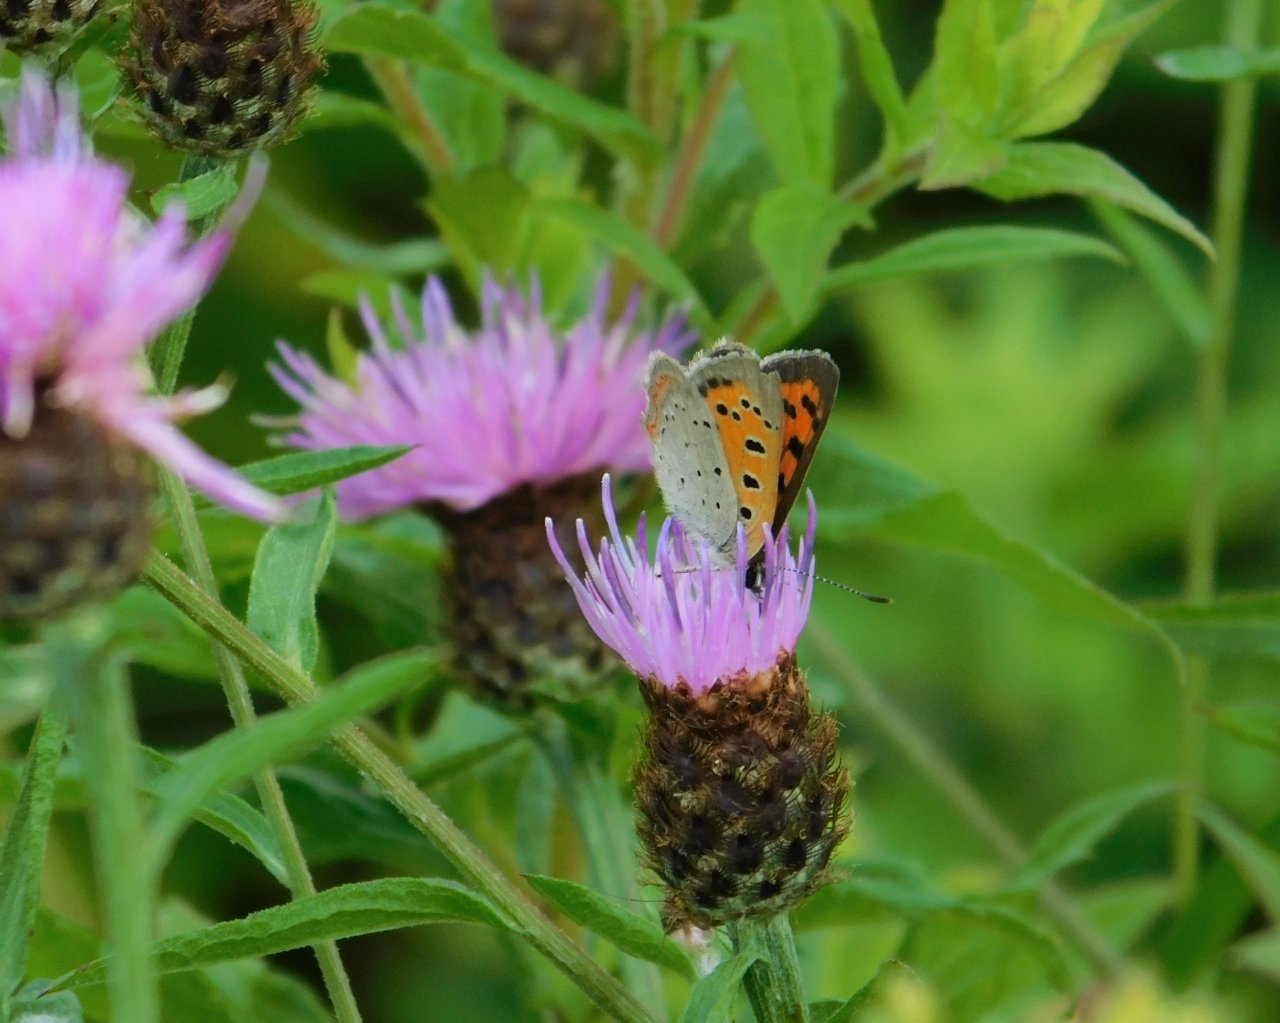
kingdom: Animalia
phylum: Arthropoda
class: Insecta
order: Lepidoptera
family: Lycaenidae
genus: Lycaena
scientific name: Lycaena phlaeas
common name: American Copper
